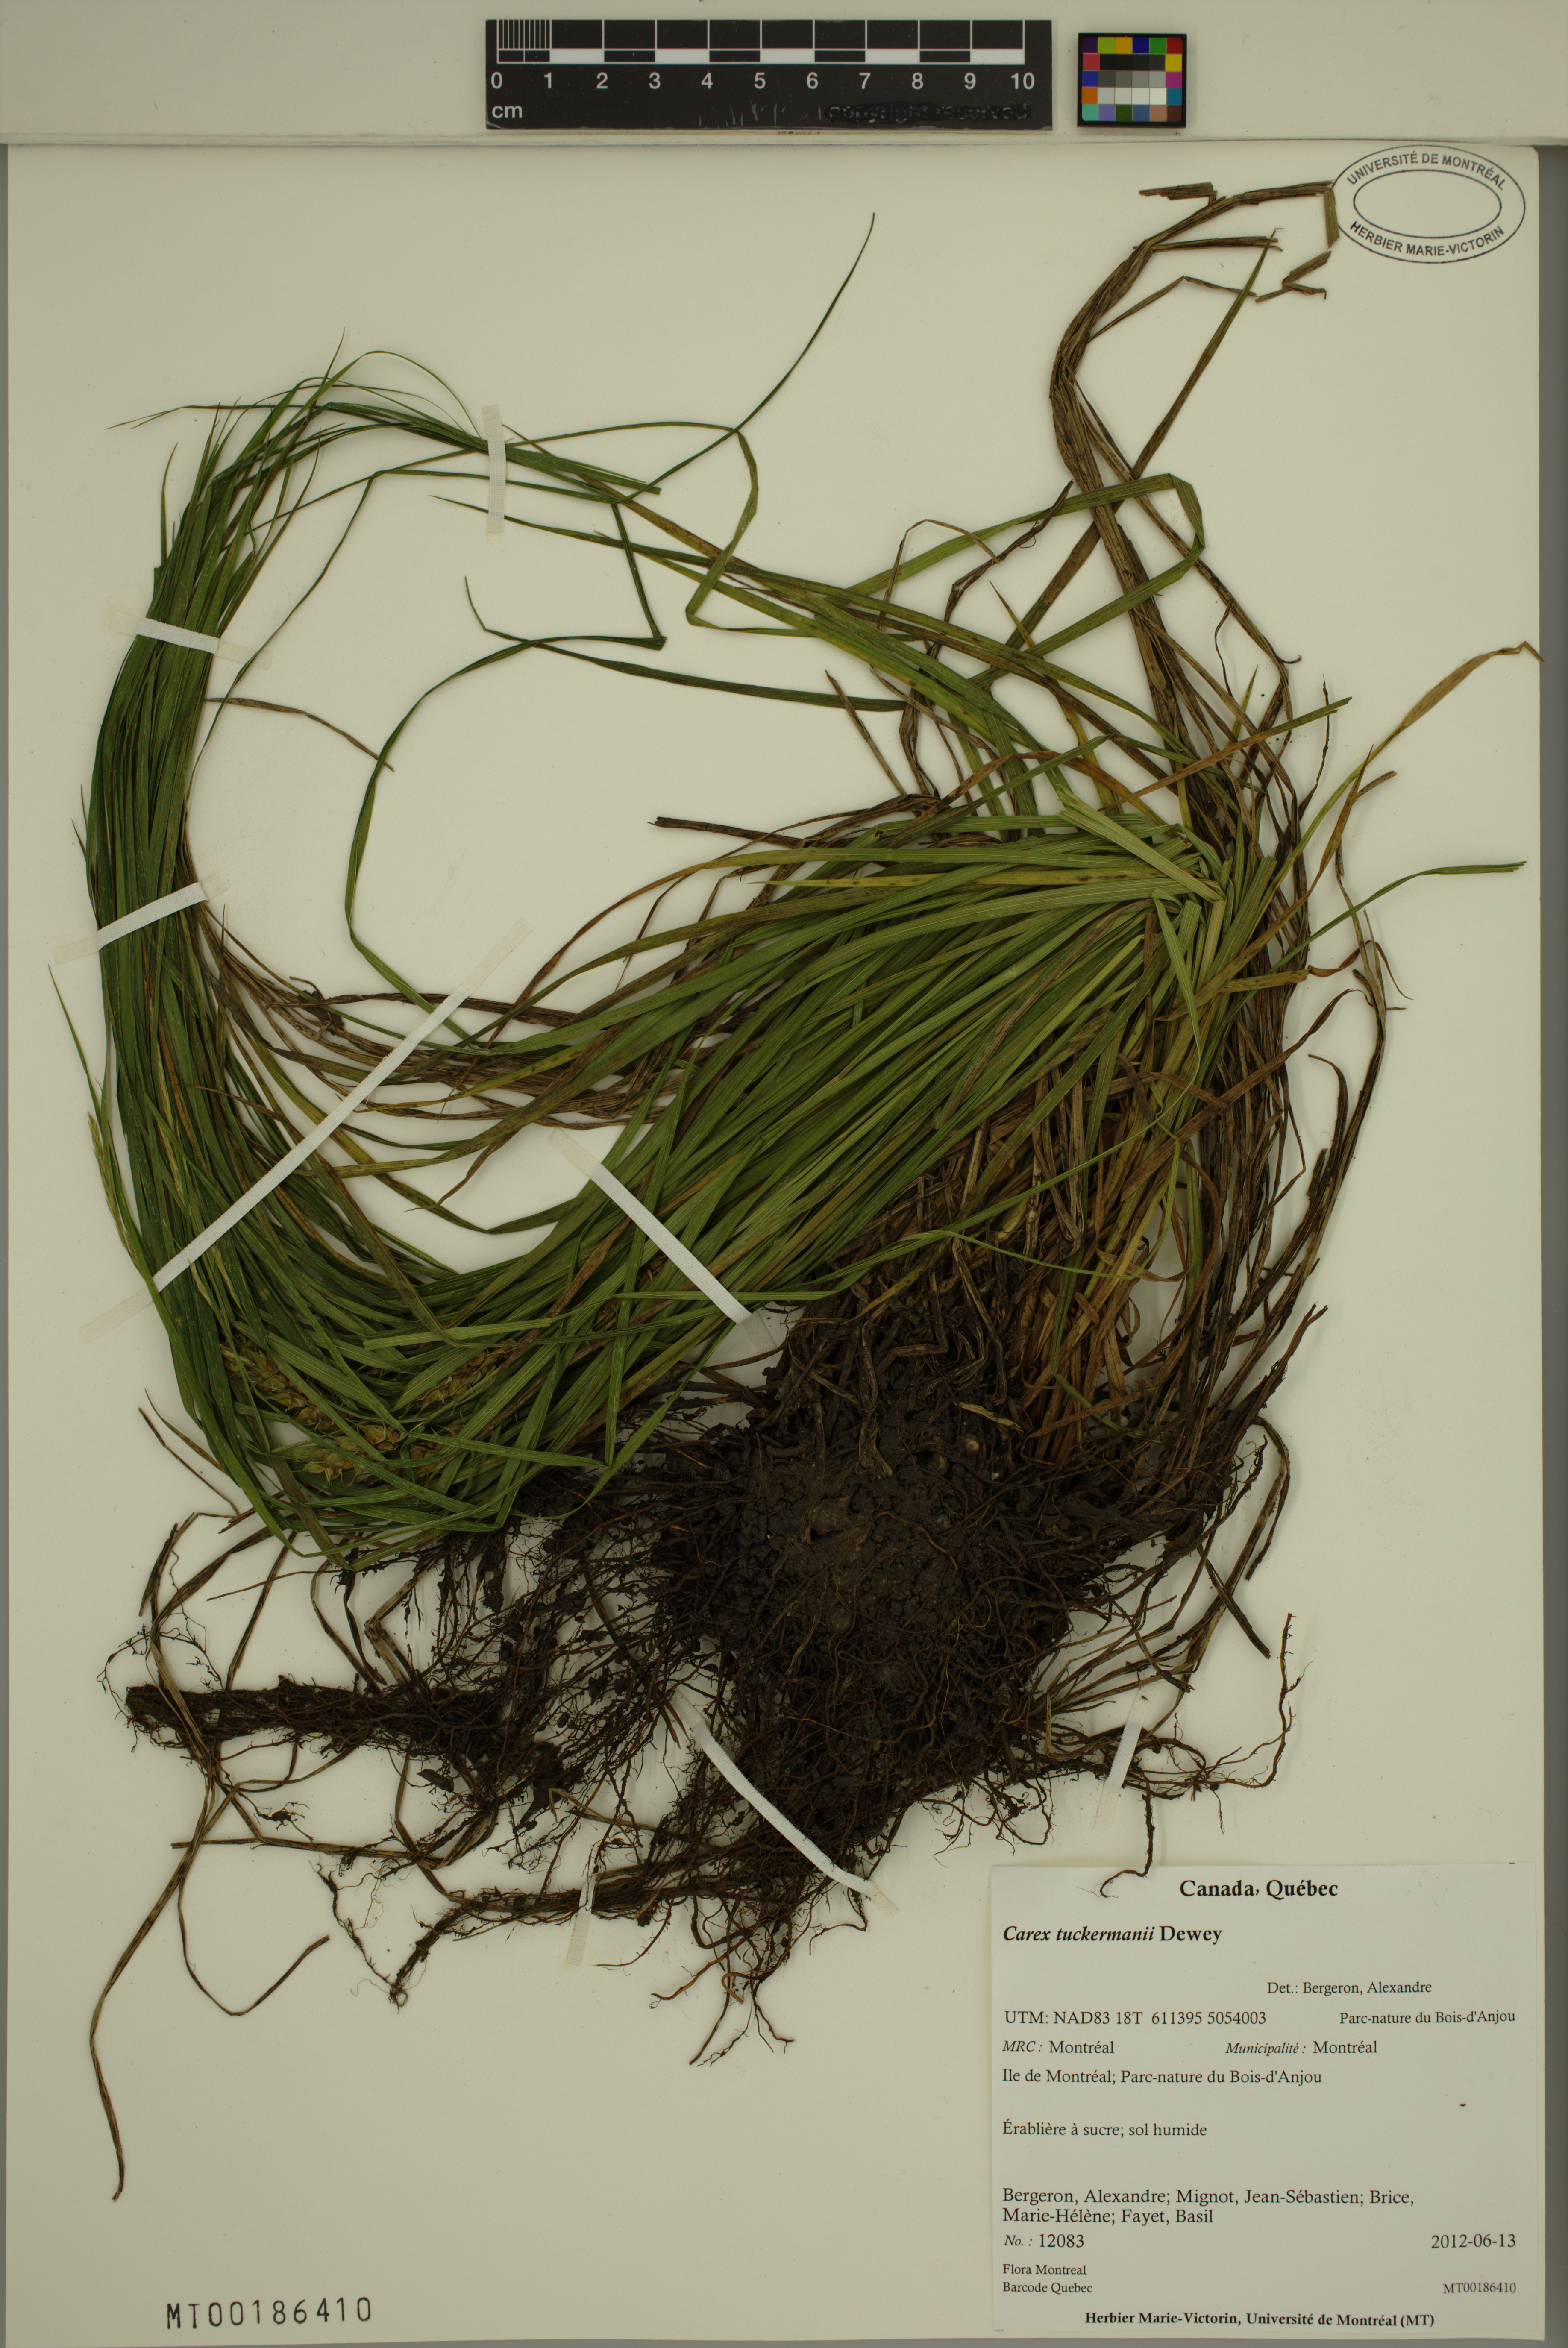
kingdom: Plantae
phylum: Tracheophyta
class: Liliopsida
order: Poales
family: Cyperaceae
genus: Carex
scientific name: Carex tuckermanii
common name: Tuckerman's sedge
